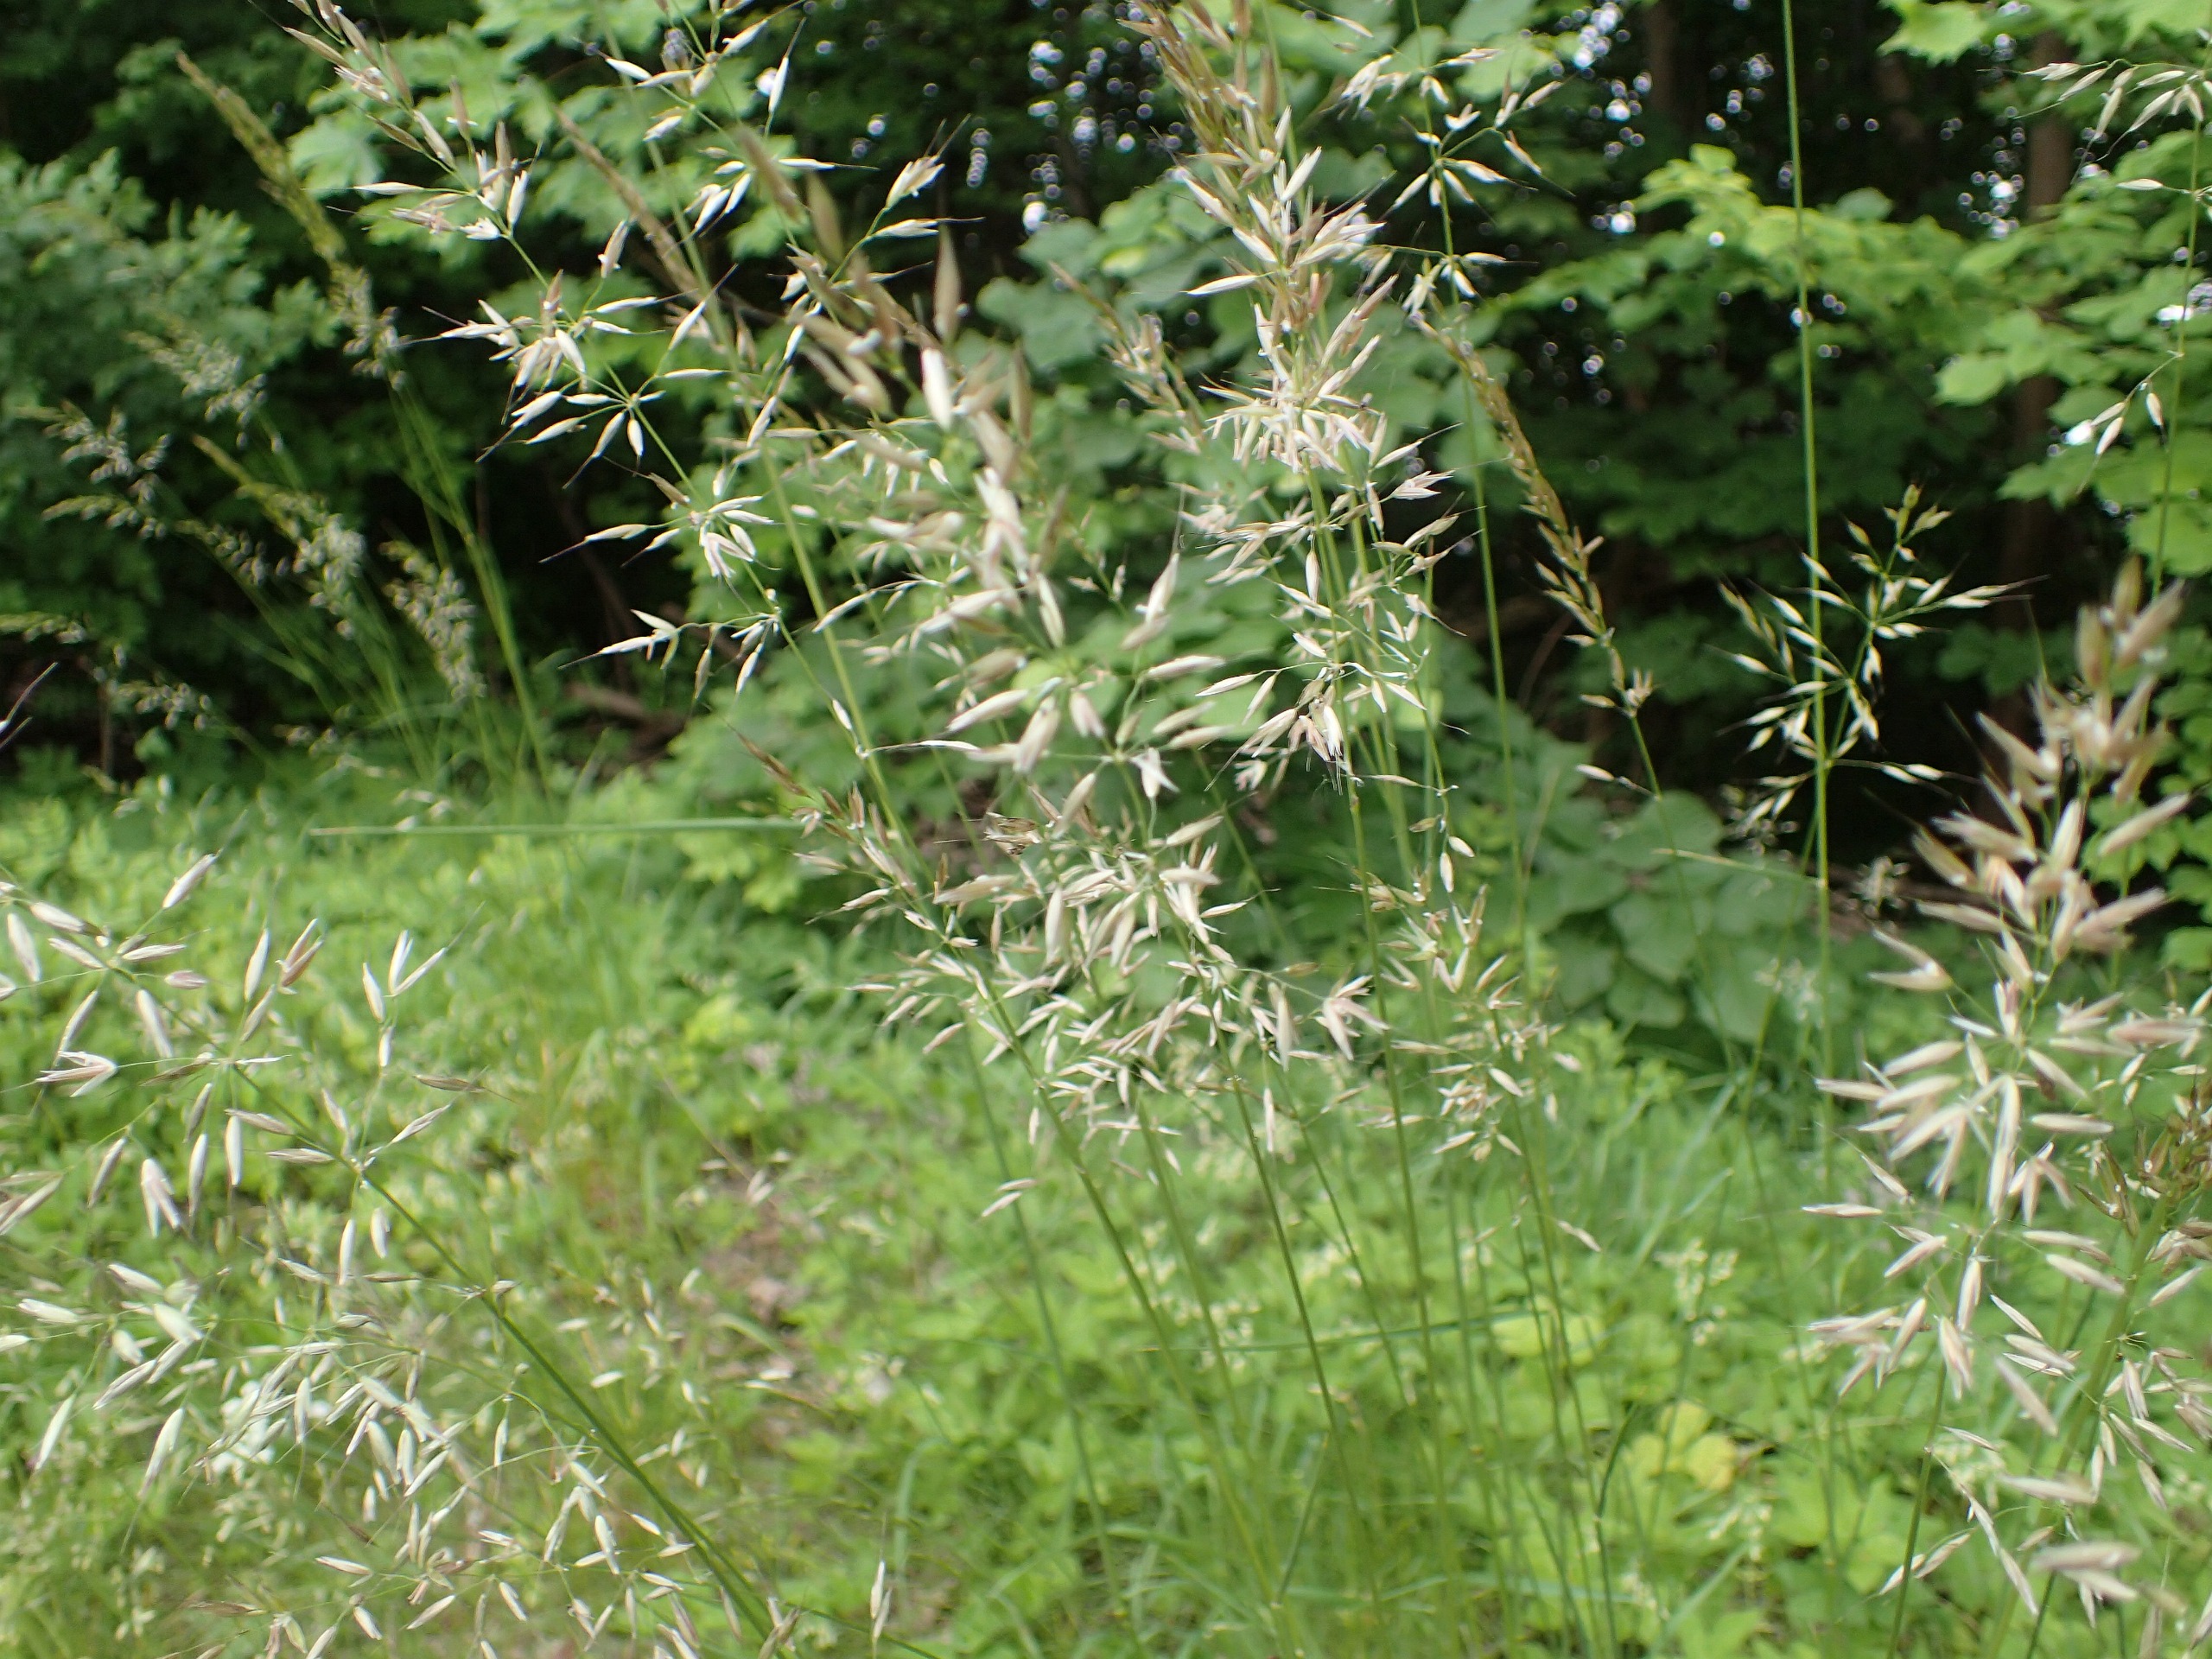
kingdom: Plantae
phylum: Tracheophyta
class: Liliopsida
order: Poales
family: Poaceae
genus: Arrhenatherum
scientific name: Arrhenatherum elatius
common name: Draphavre
